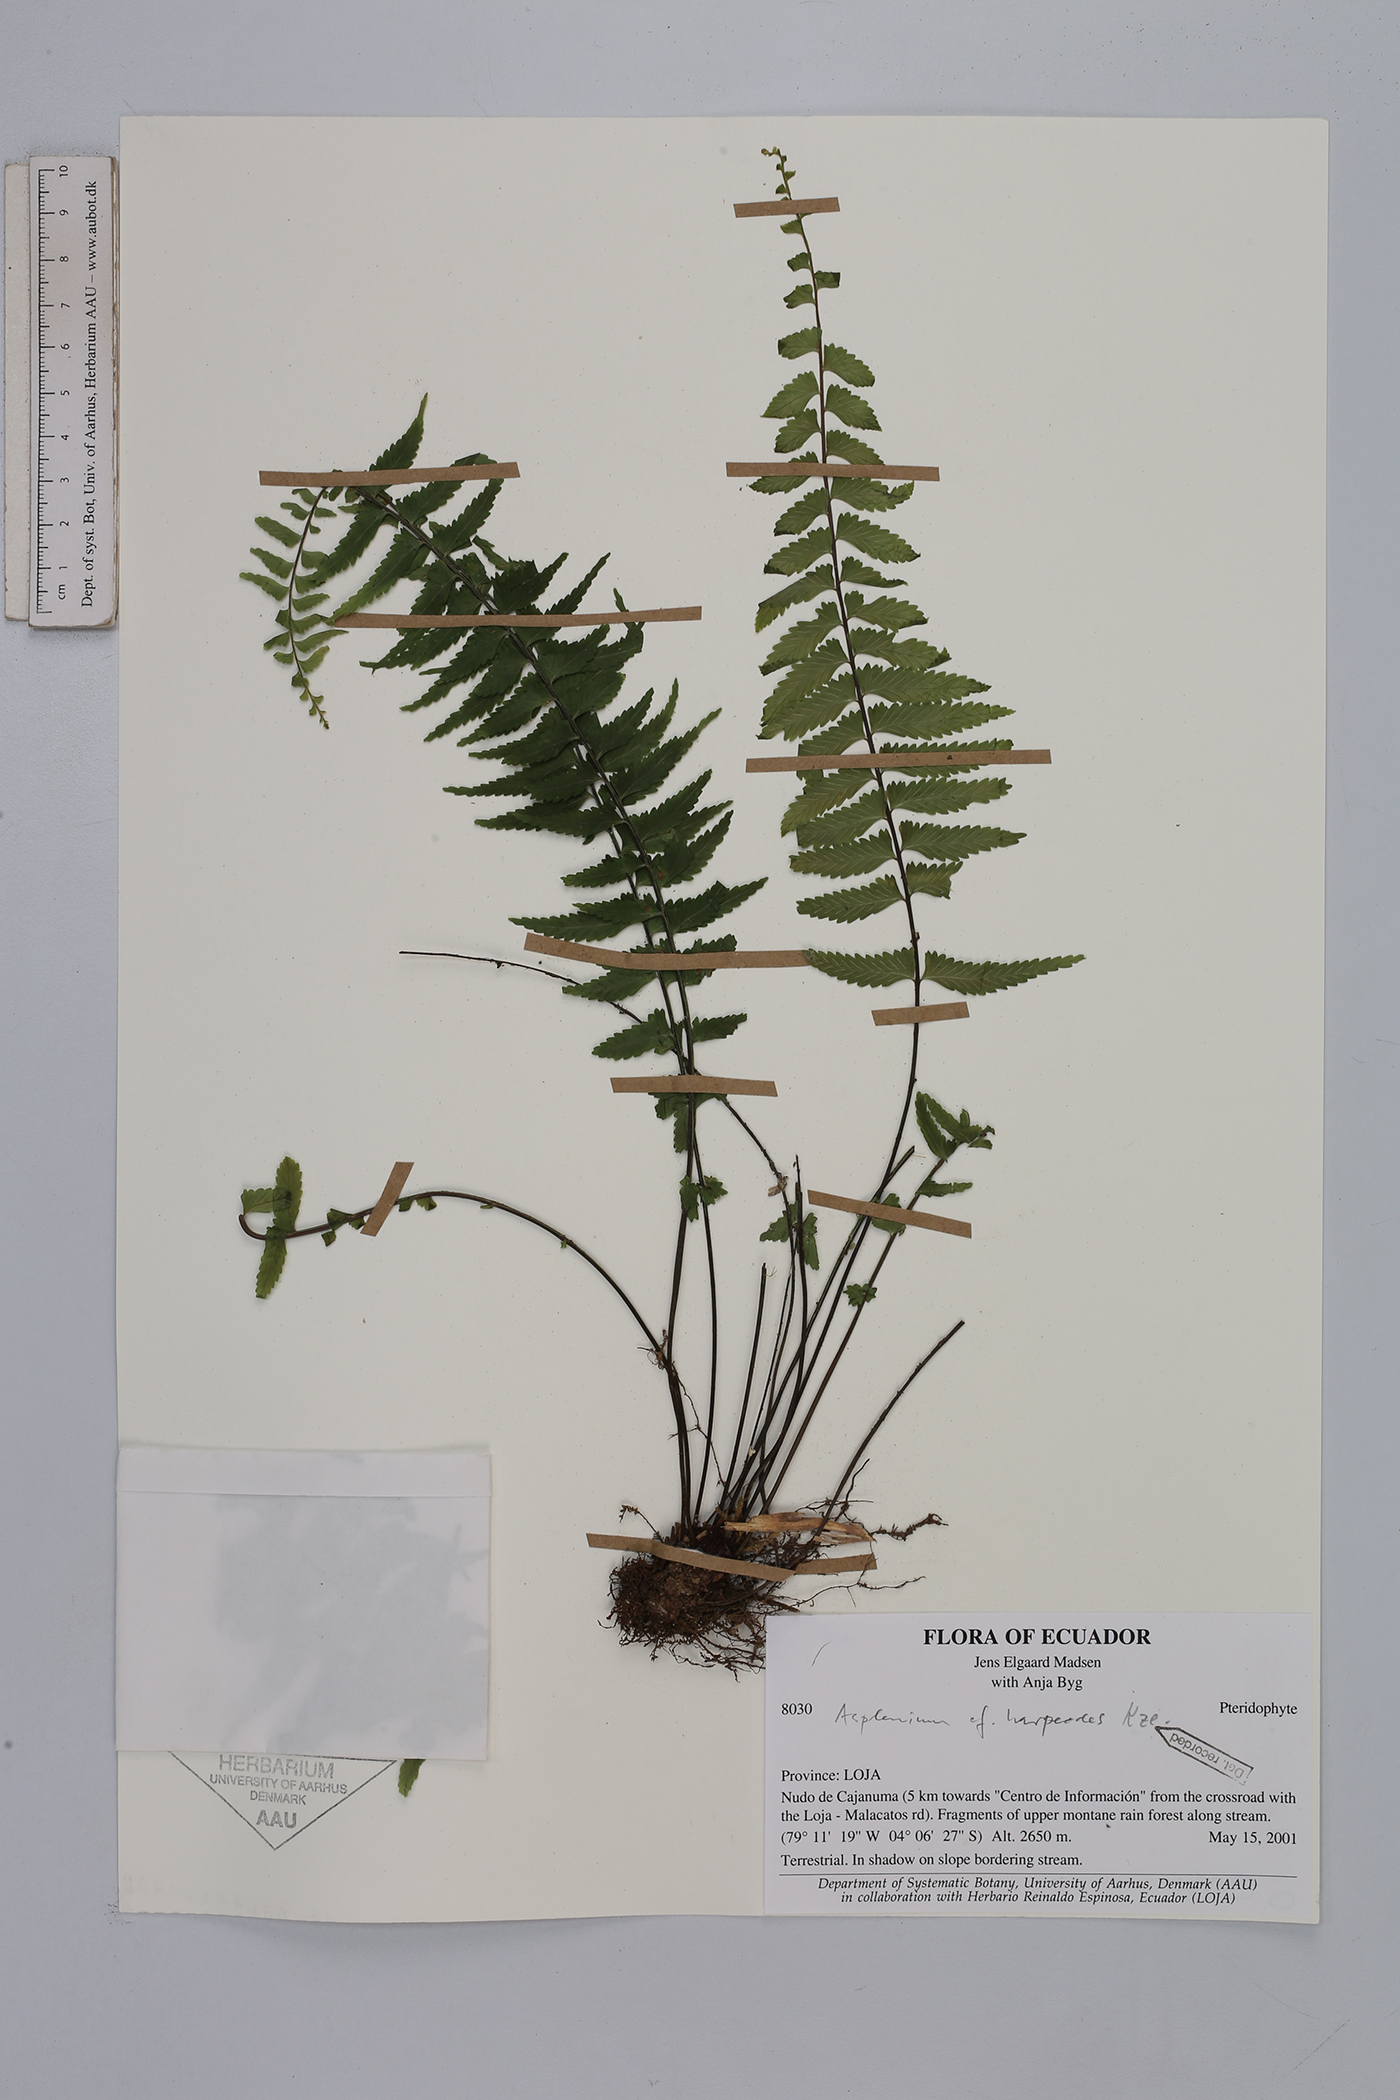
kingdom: Plantae
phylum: Tracheophyta
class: Polypodiopsida
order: Polypodiales
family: Aspleniaceae
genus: Asplenium
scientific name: Asplenium harpeodes
